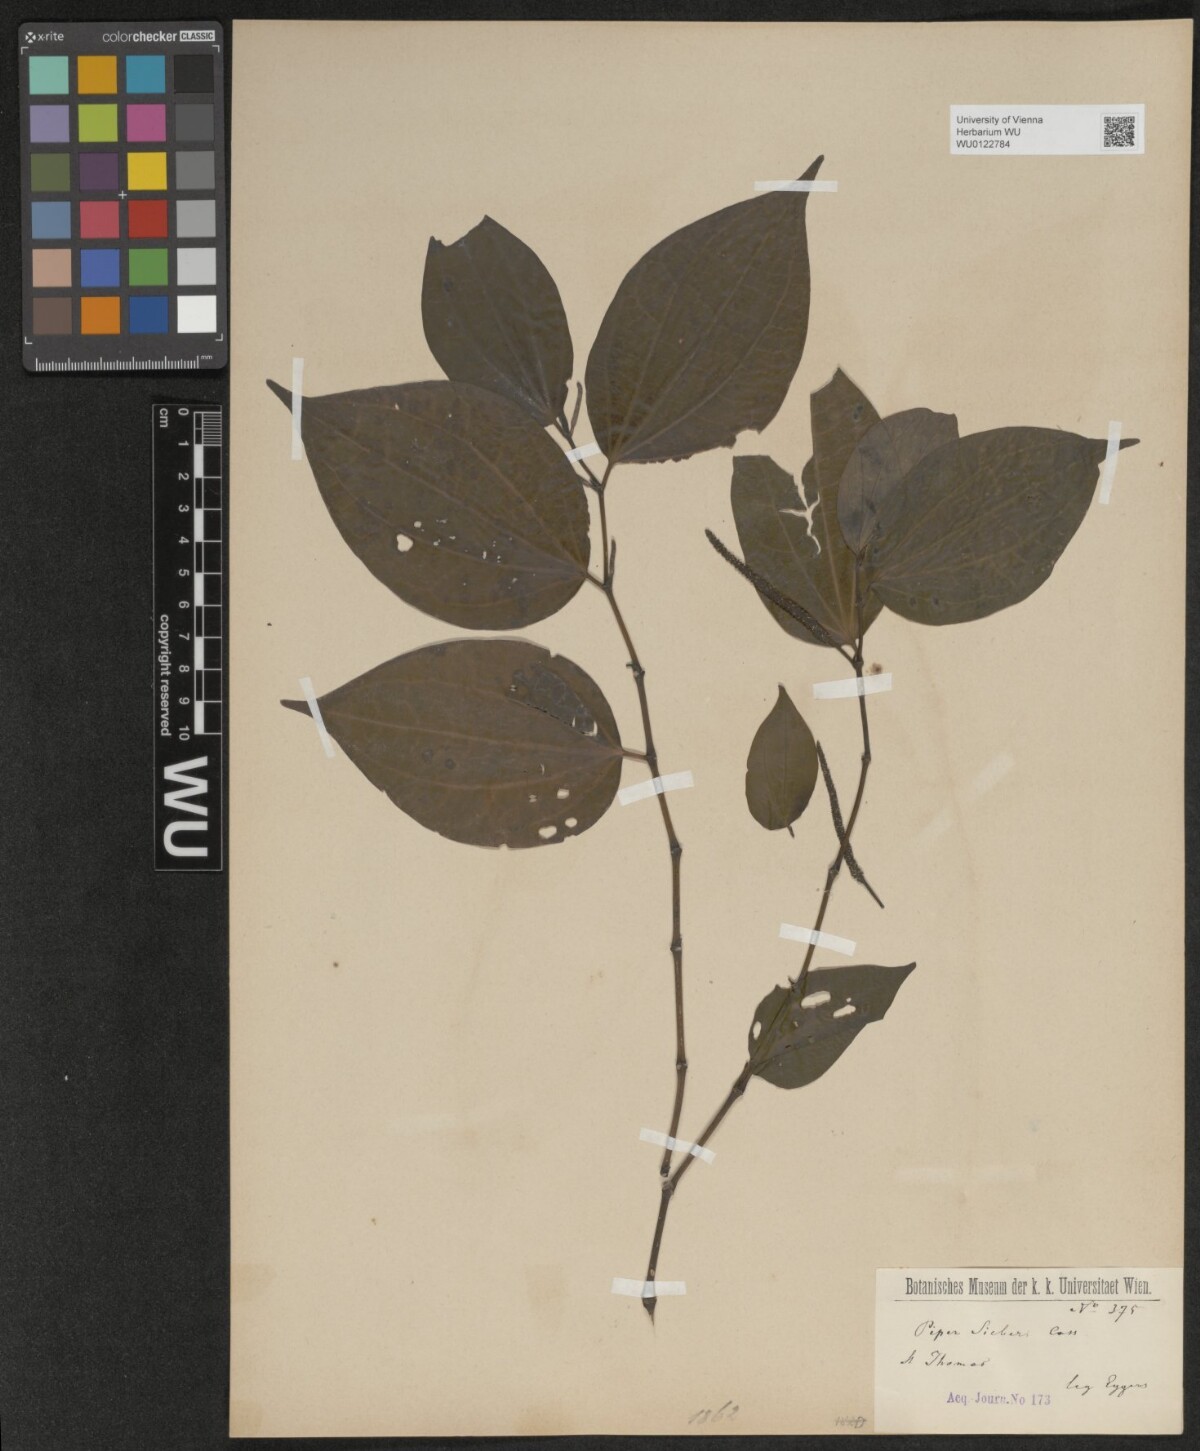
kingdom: Plantae
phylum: Tracheophyta
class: Magnoliopsida
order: Piperales
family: Piperaceae
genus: Piper
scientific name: Piper amalago
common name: Pepper-elder
